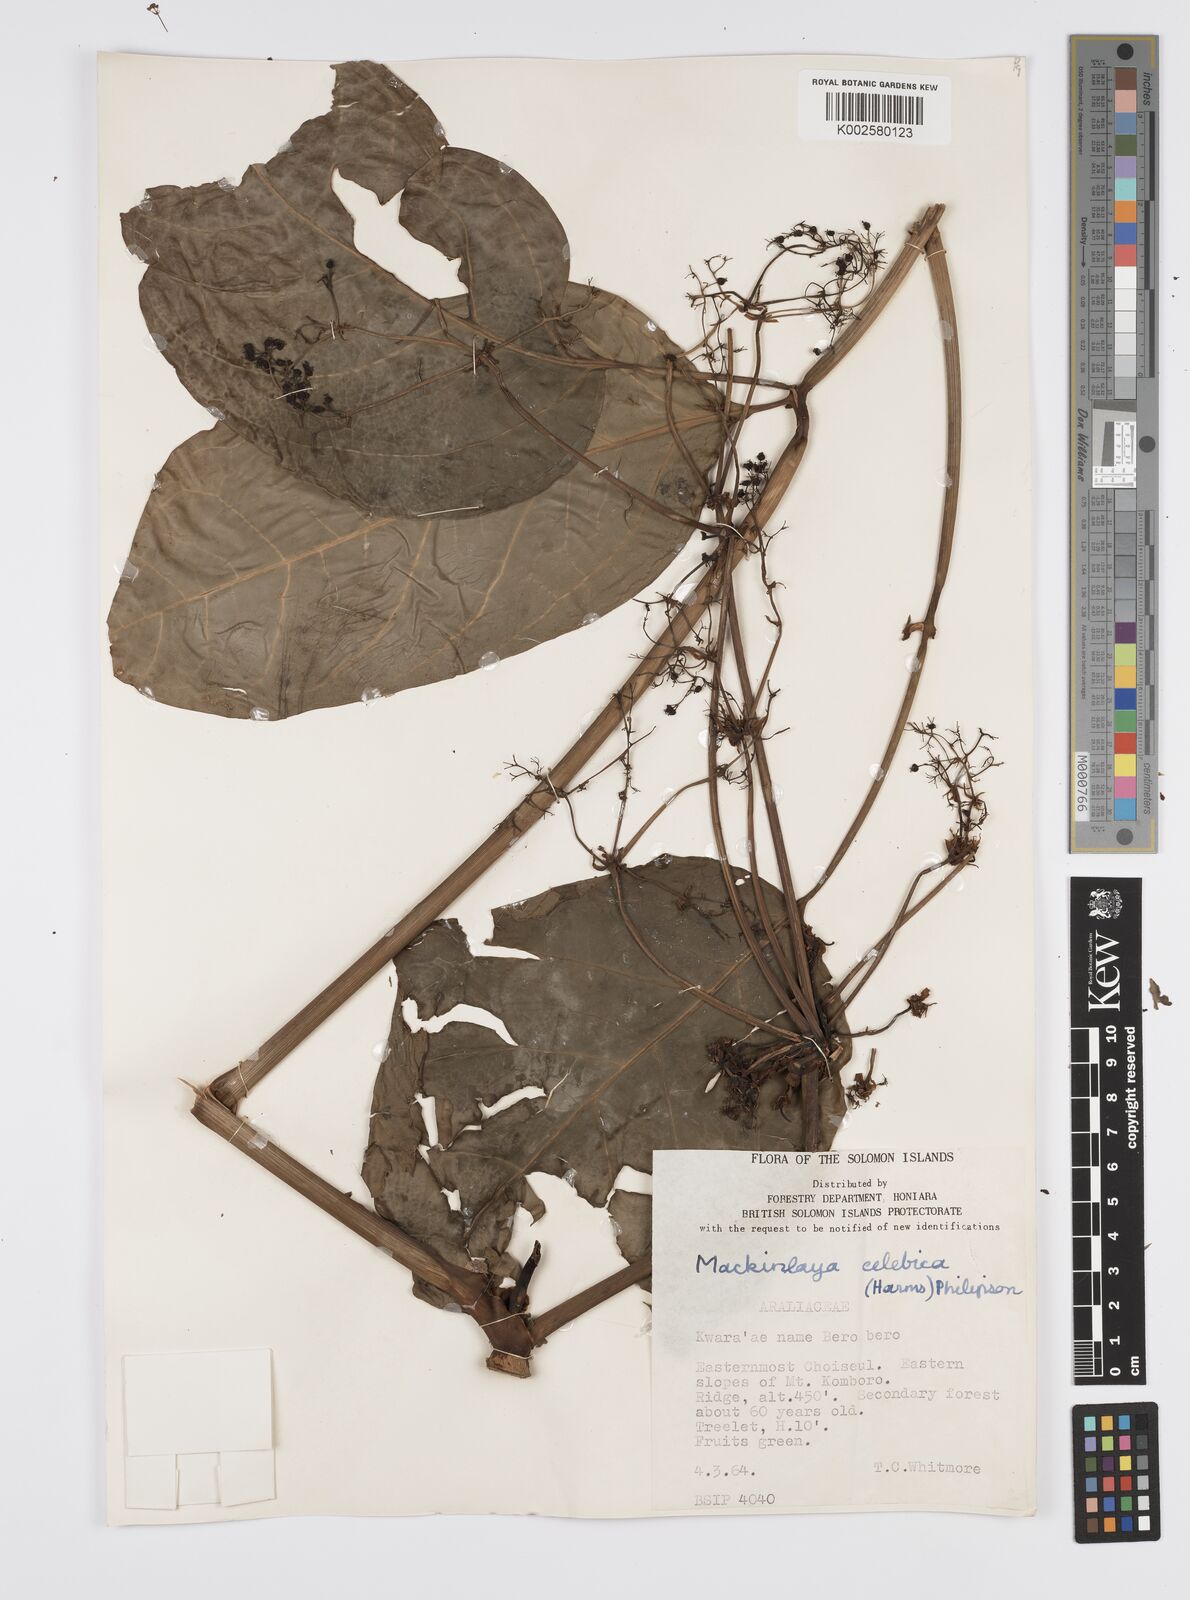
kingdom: Plantae
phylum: Tracheophyta
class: Magnoliopsida
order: Apiales
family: Apiaceae
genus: Mackinlaya
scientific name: Mackinlaya celebica
